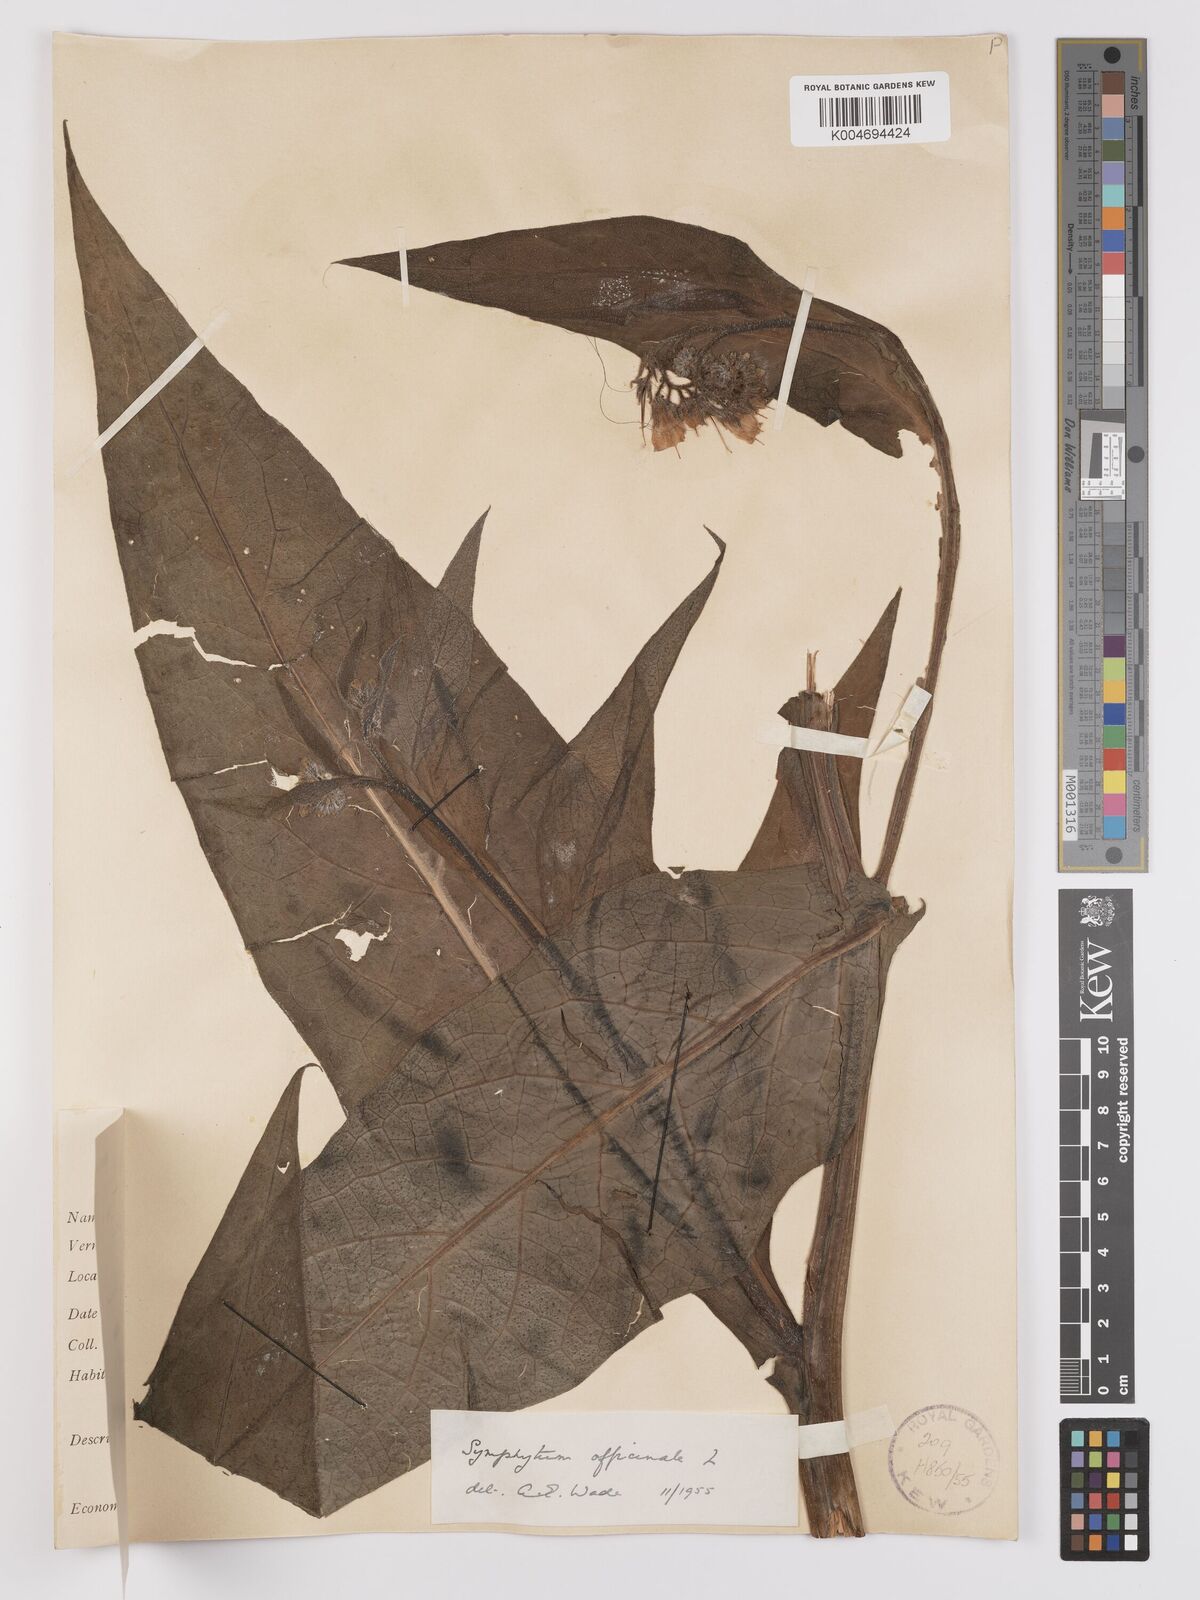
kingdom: Plantae
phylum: Tracheophyta
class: Magnoliopsida
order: Boraginales
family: Boraginaceae
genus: Symphytum
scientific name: Symphytum officinale
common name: Common comfrey
